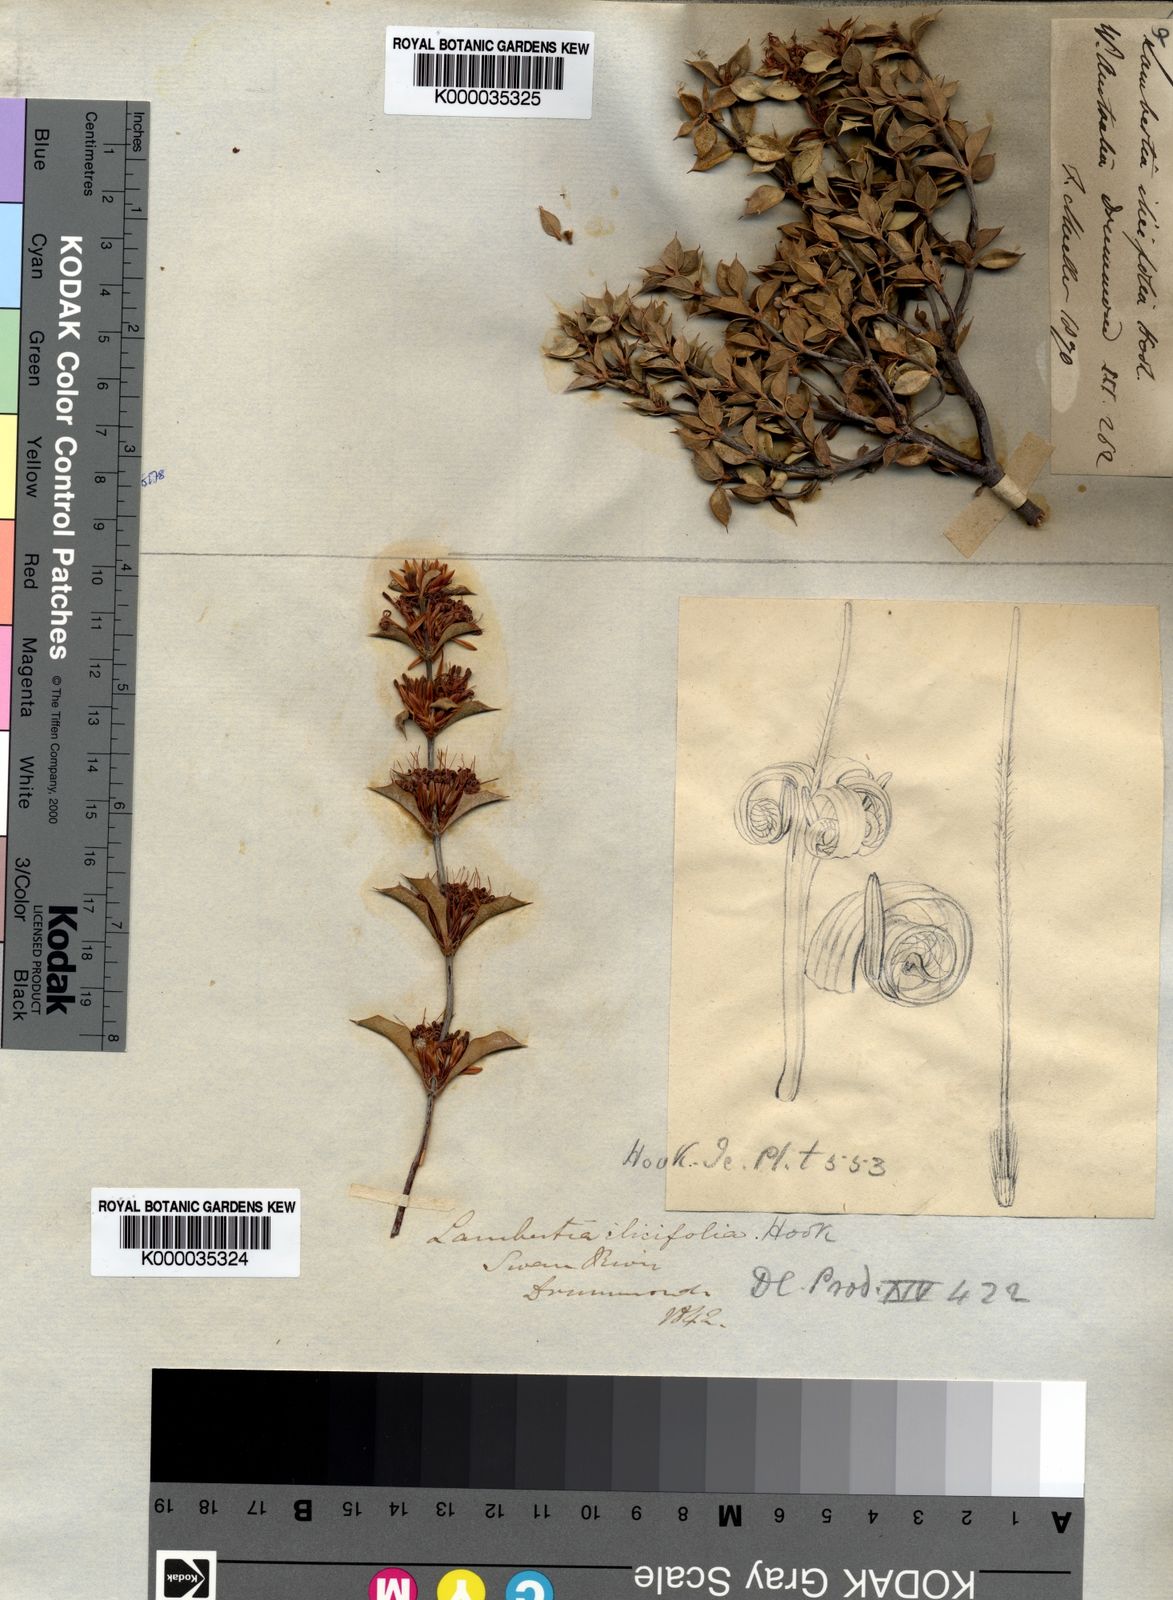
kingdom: Plantae
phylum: Tracheophyta
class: Magnoliopsida
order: Proteales
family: Proteaceae
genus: Lambertia
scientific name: Lambertia ilicifolia
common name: Holly-leaved lambertia
